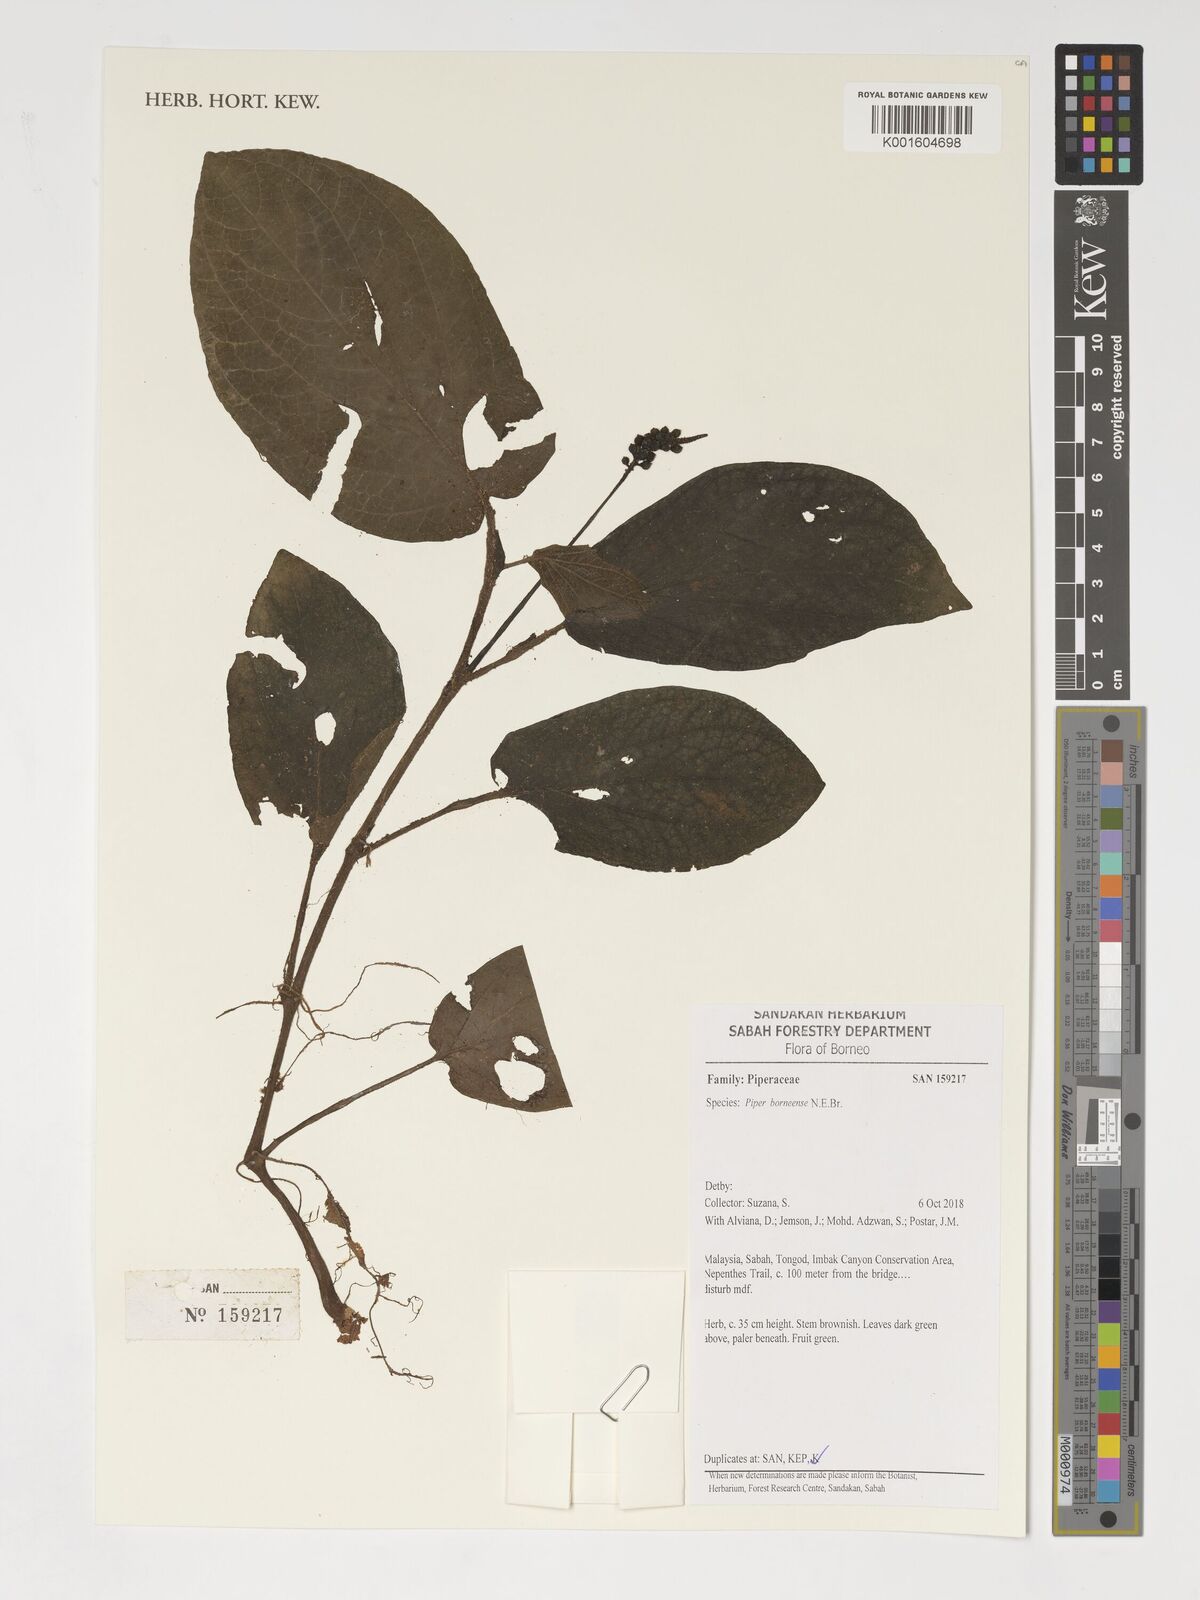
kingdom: Plantae
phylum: Tracheophyta
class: Magnoliopsida
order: Piperales
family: Piperaceae
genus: Piper
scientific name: Piper borneense
